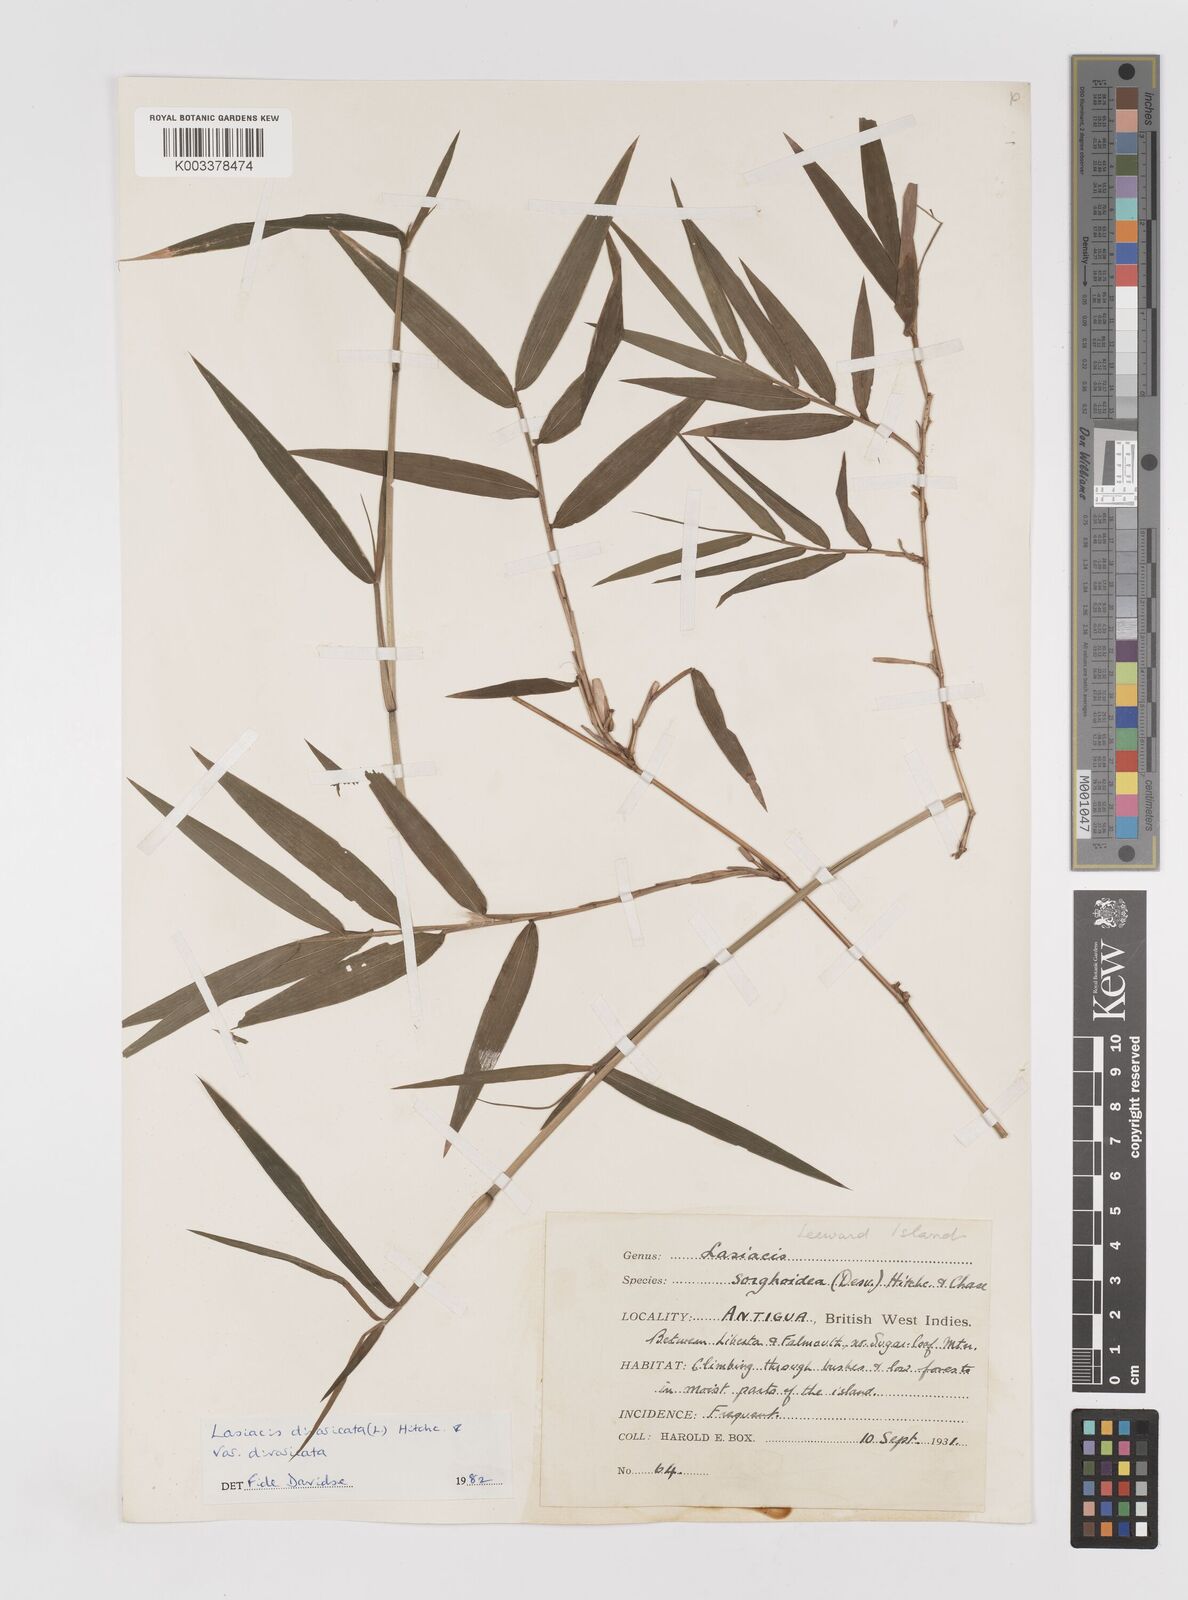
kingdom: Plantae
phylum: Tracheophyta
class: Liliopsida
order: Poales
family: Poaceae
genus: Lasiacis
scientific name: Lasiacis divaricata
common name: Smallcane
